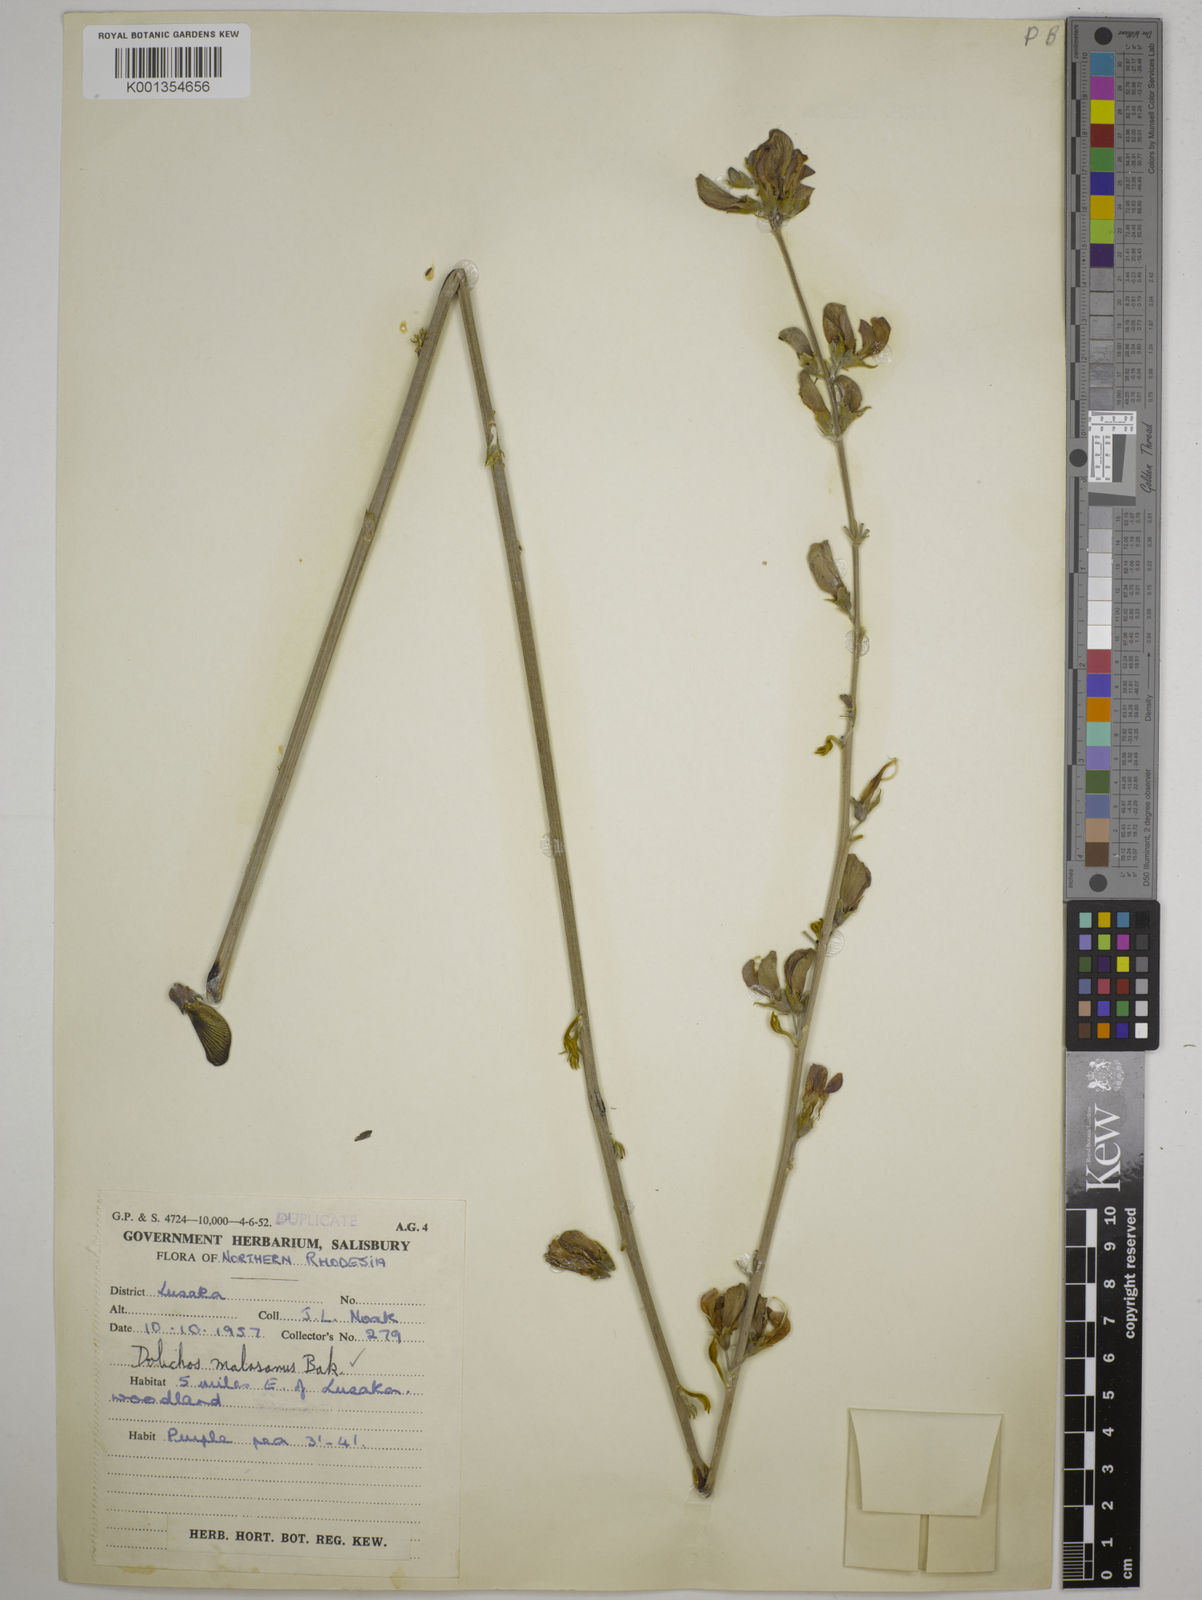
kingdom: Plantae
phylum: Tracheophyta
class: Magnoliopsida
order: Fabales
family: Fabaceae
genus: Dolichos
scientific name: Dolichos kilimandscharicus
